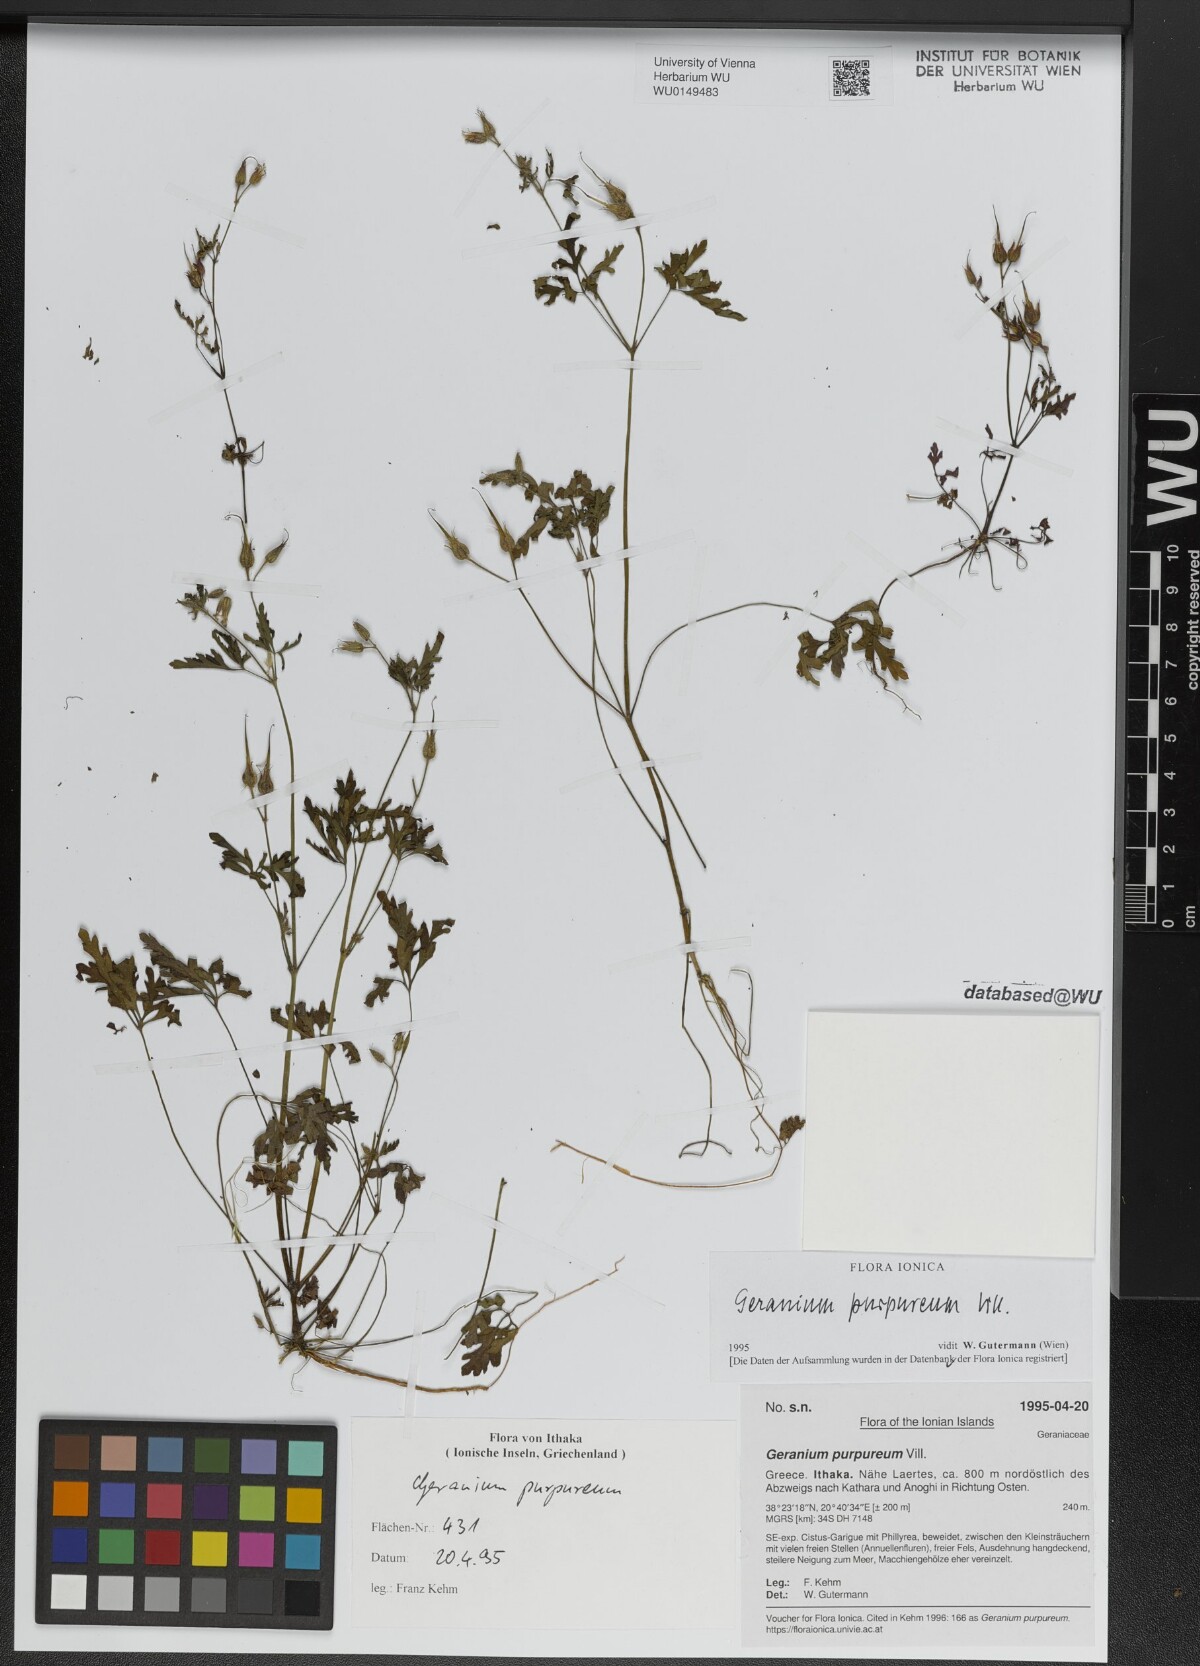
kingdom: Plantae
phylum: Tracheophyta
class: Magnoliopsida
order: Geraniales
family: Geraniaceae
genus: Geranium
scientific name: Geranium purpureum
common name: Little-robin
